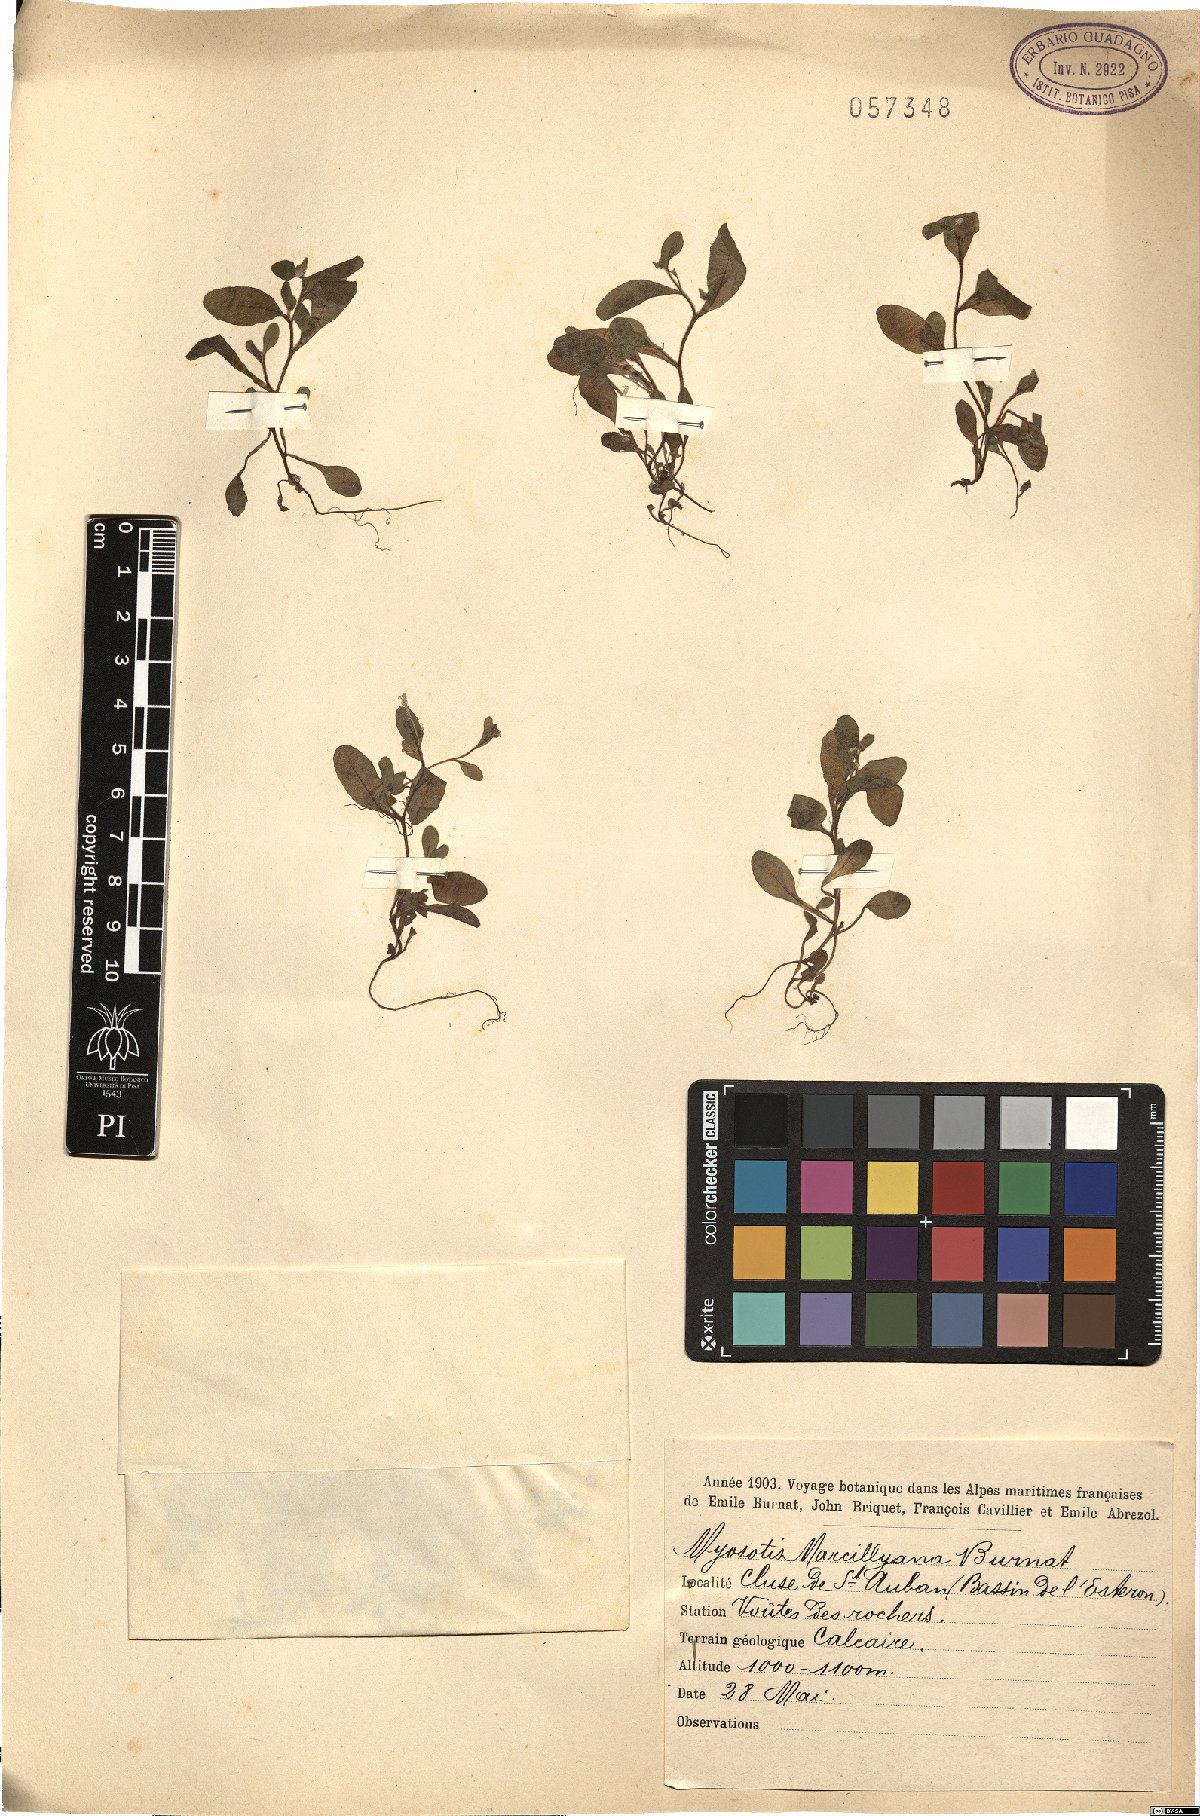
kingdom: Plantae
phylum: Tracheophyta
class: Magnoliopsida
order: Boraginales
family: Boraginaceae
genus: Myosotis
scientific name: Myosotis speluncicola
